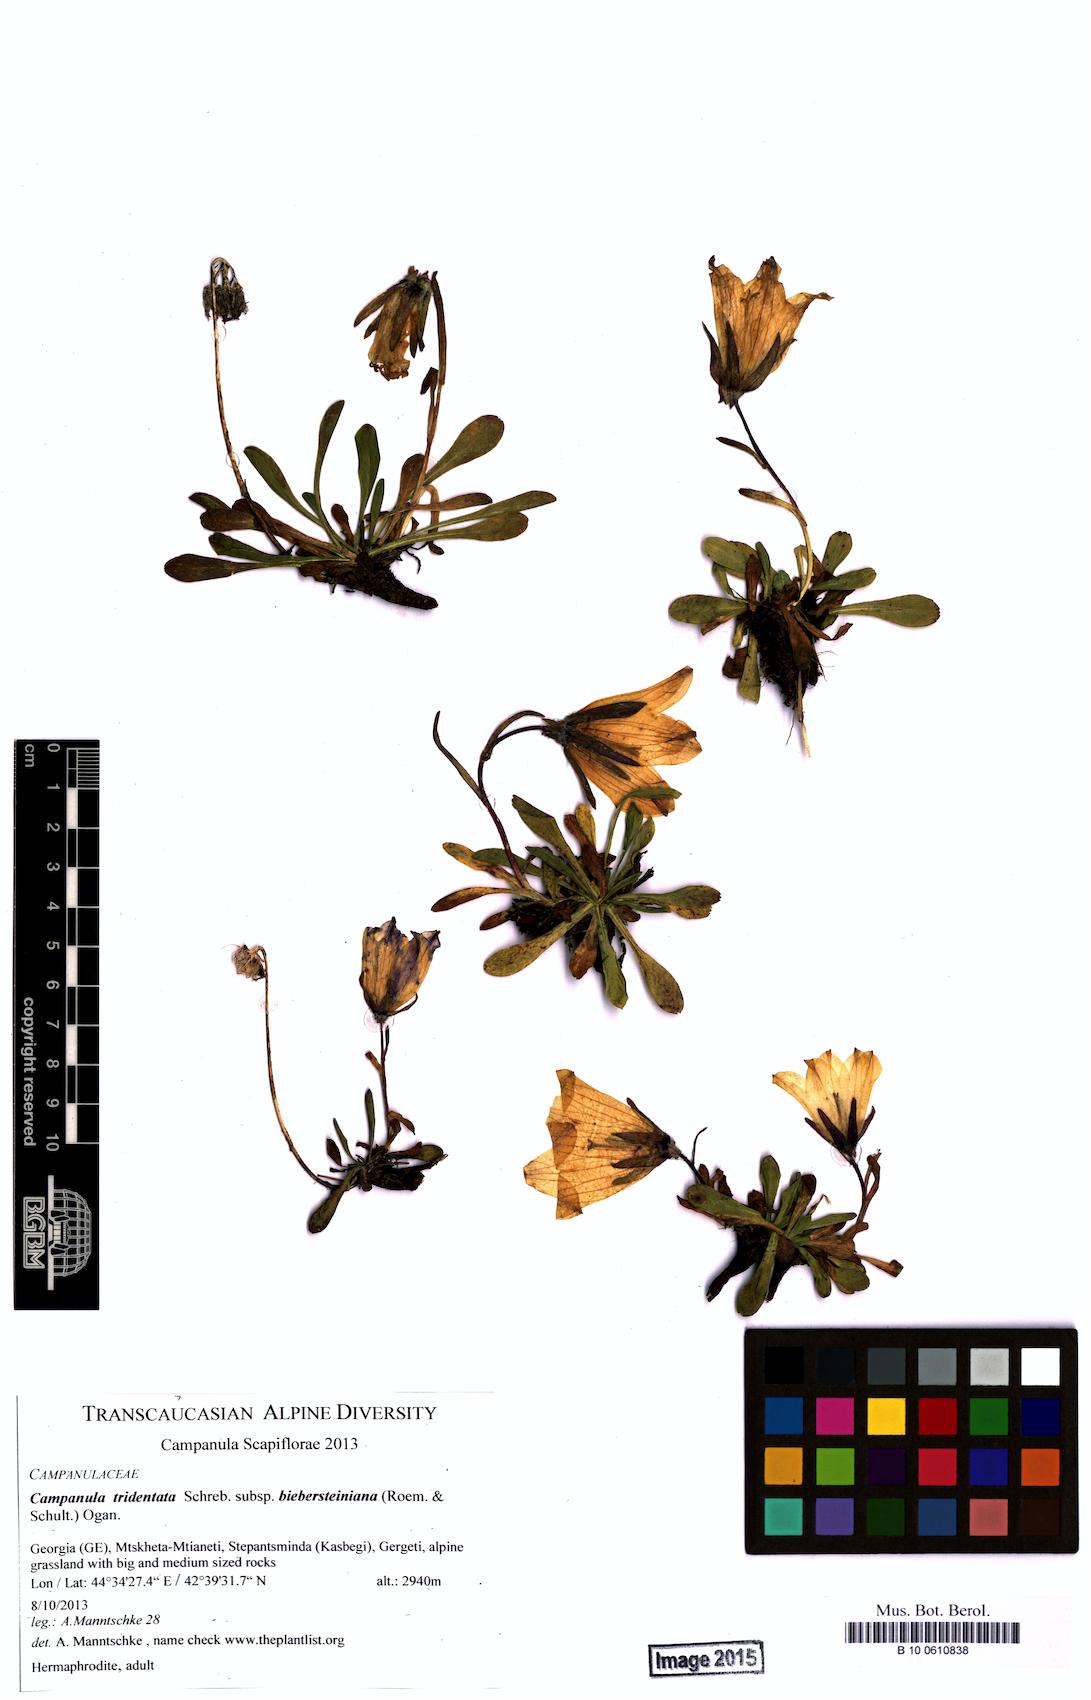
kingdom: Plantae
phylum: Tracheophyta
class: Magnoliopsida
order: Asterales
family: Campanulaceae
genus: Campanula
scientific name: Campanula tridentata
